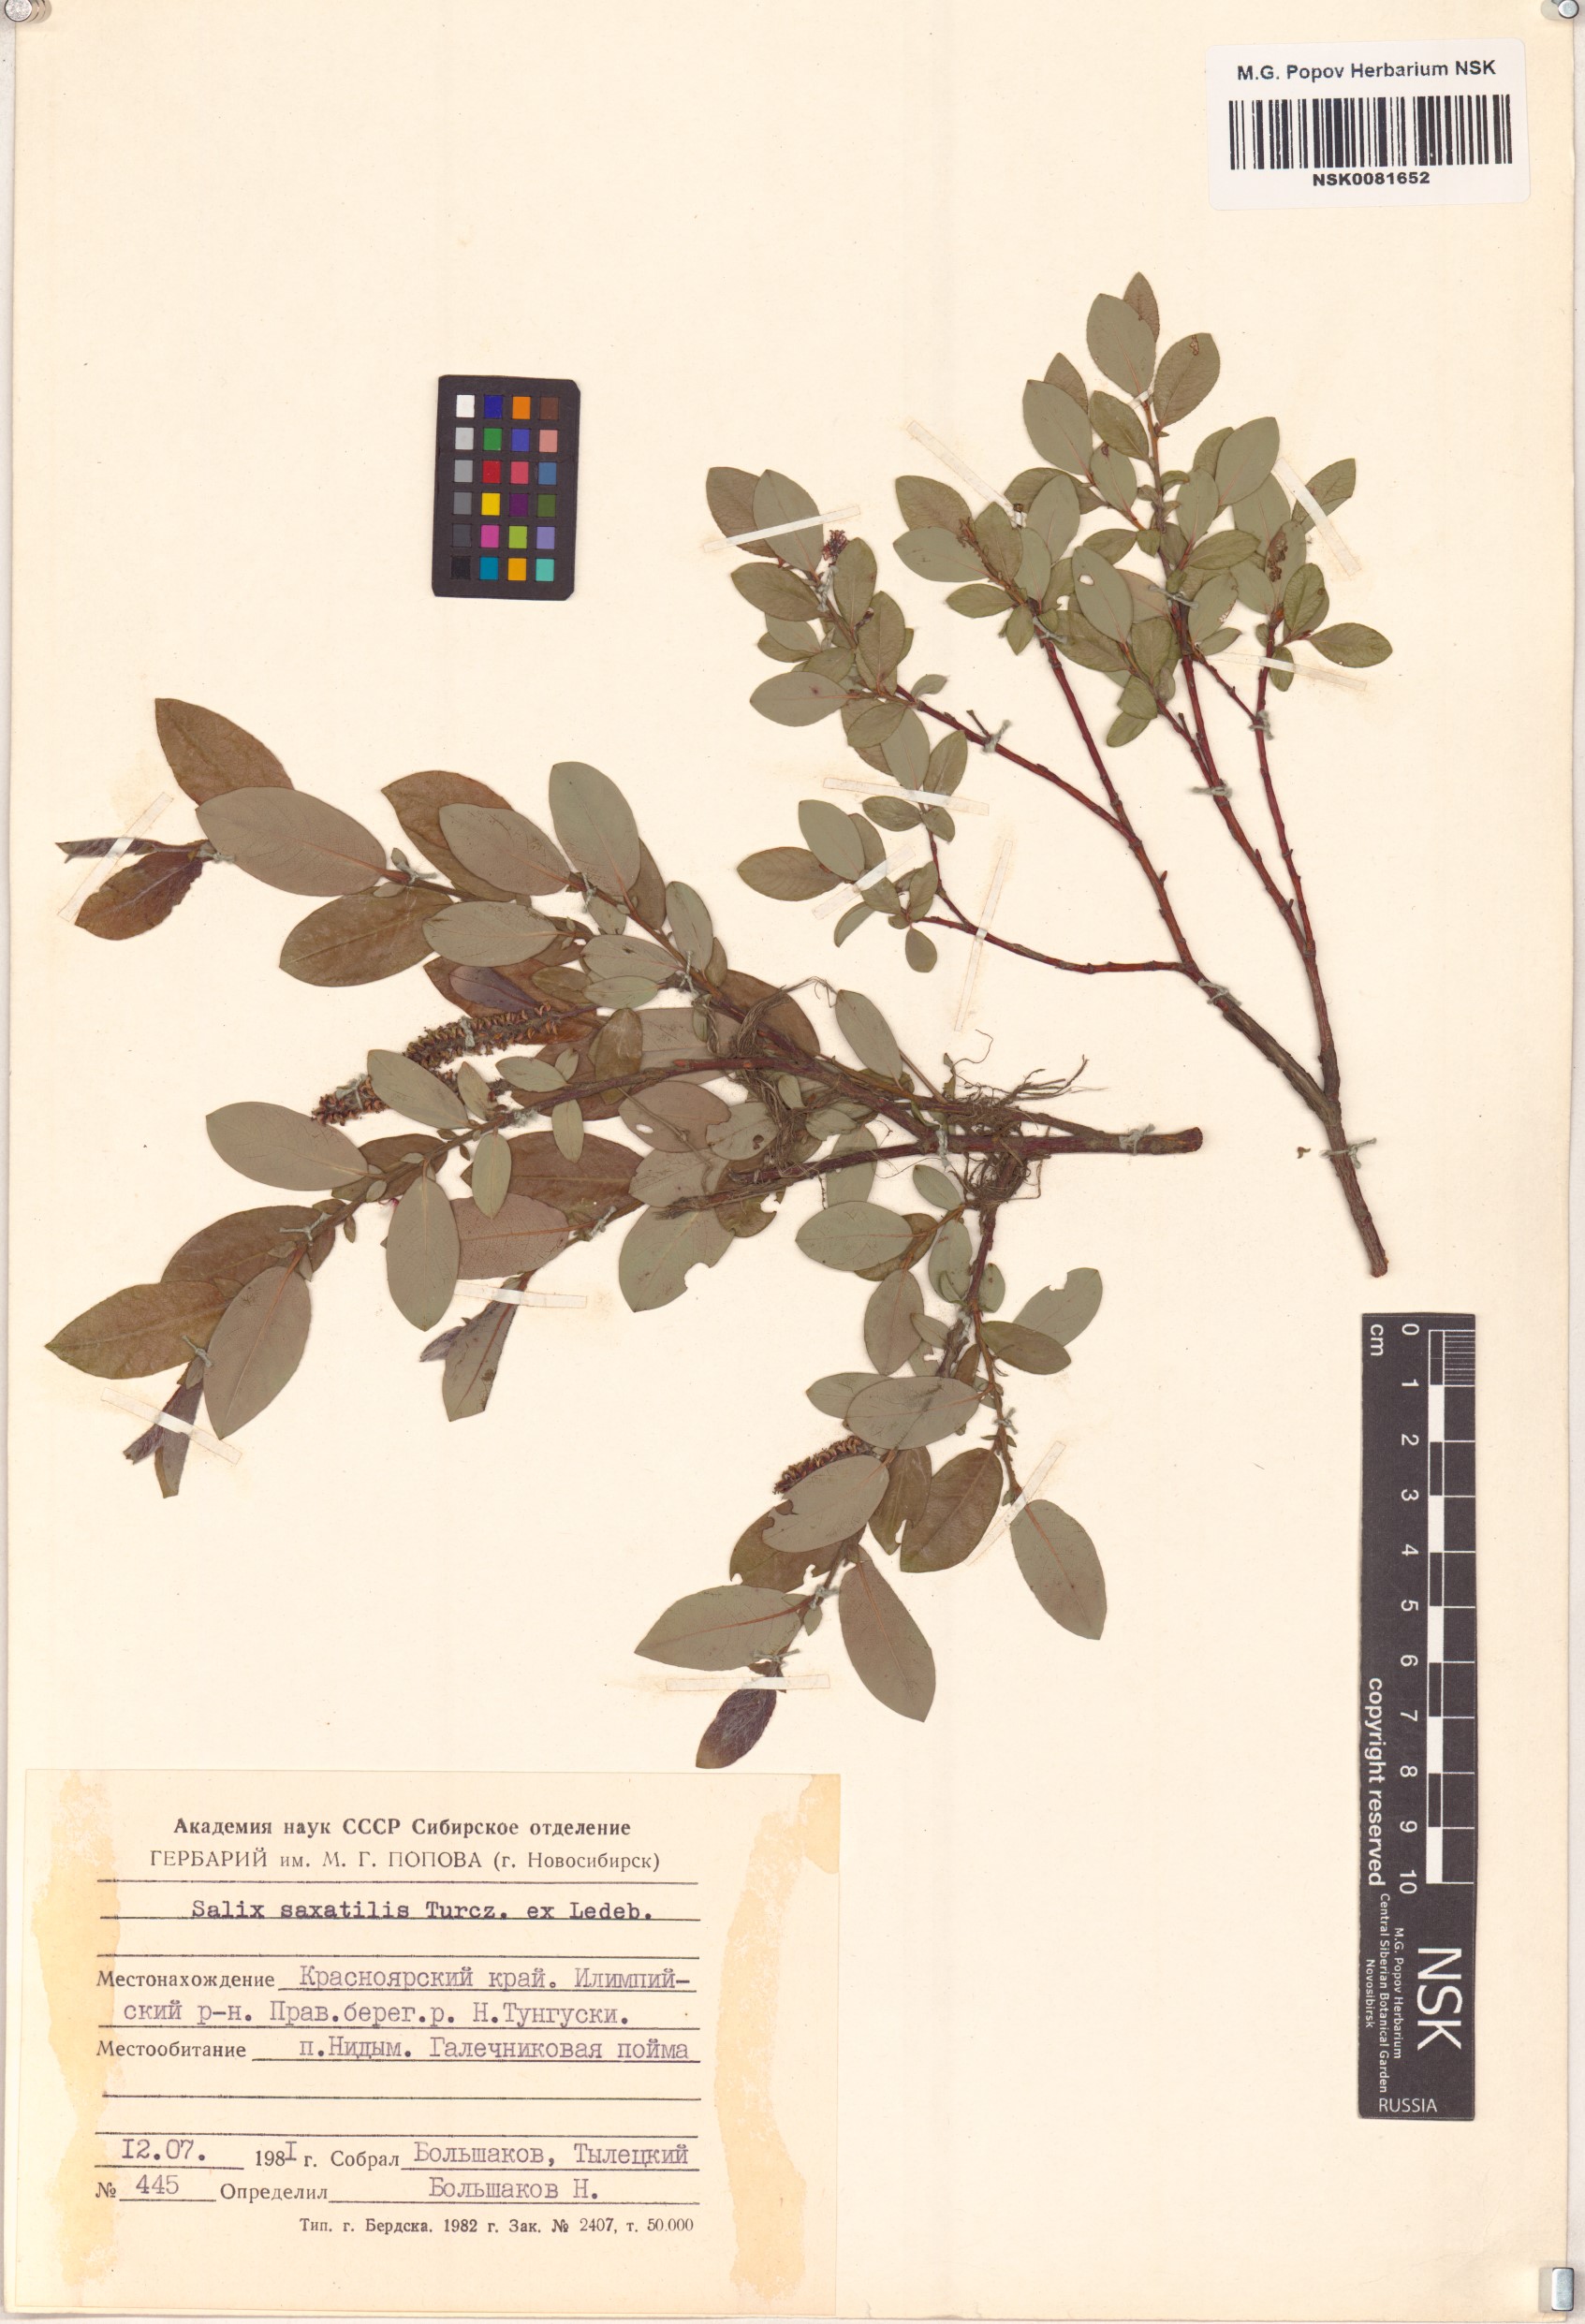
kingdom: Plantae
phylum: Tracheophyta
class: Magnoliopsida
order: Malpighiales
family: Salicaceae
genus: Salix
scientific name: Salix saxatilis
